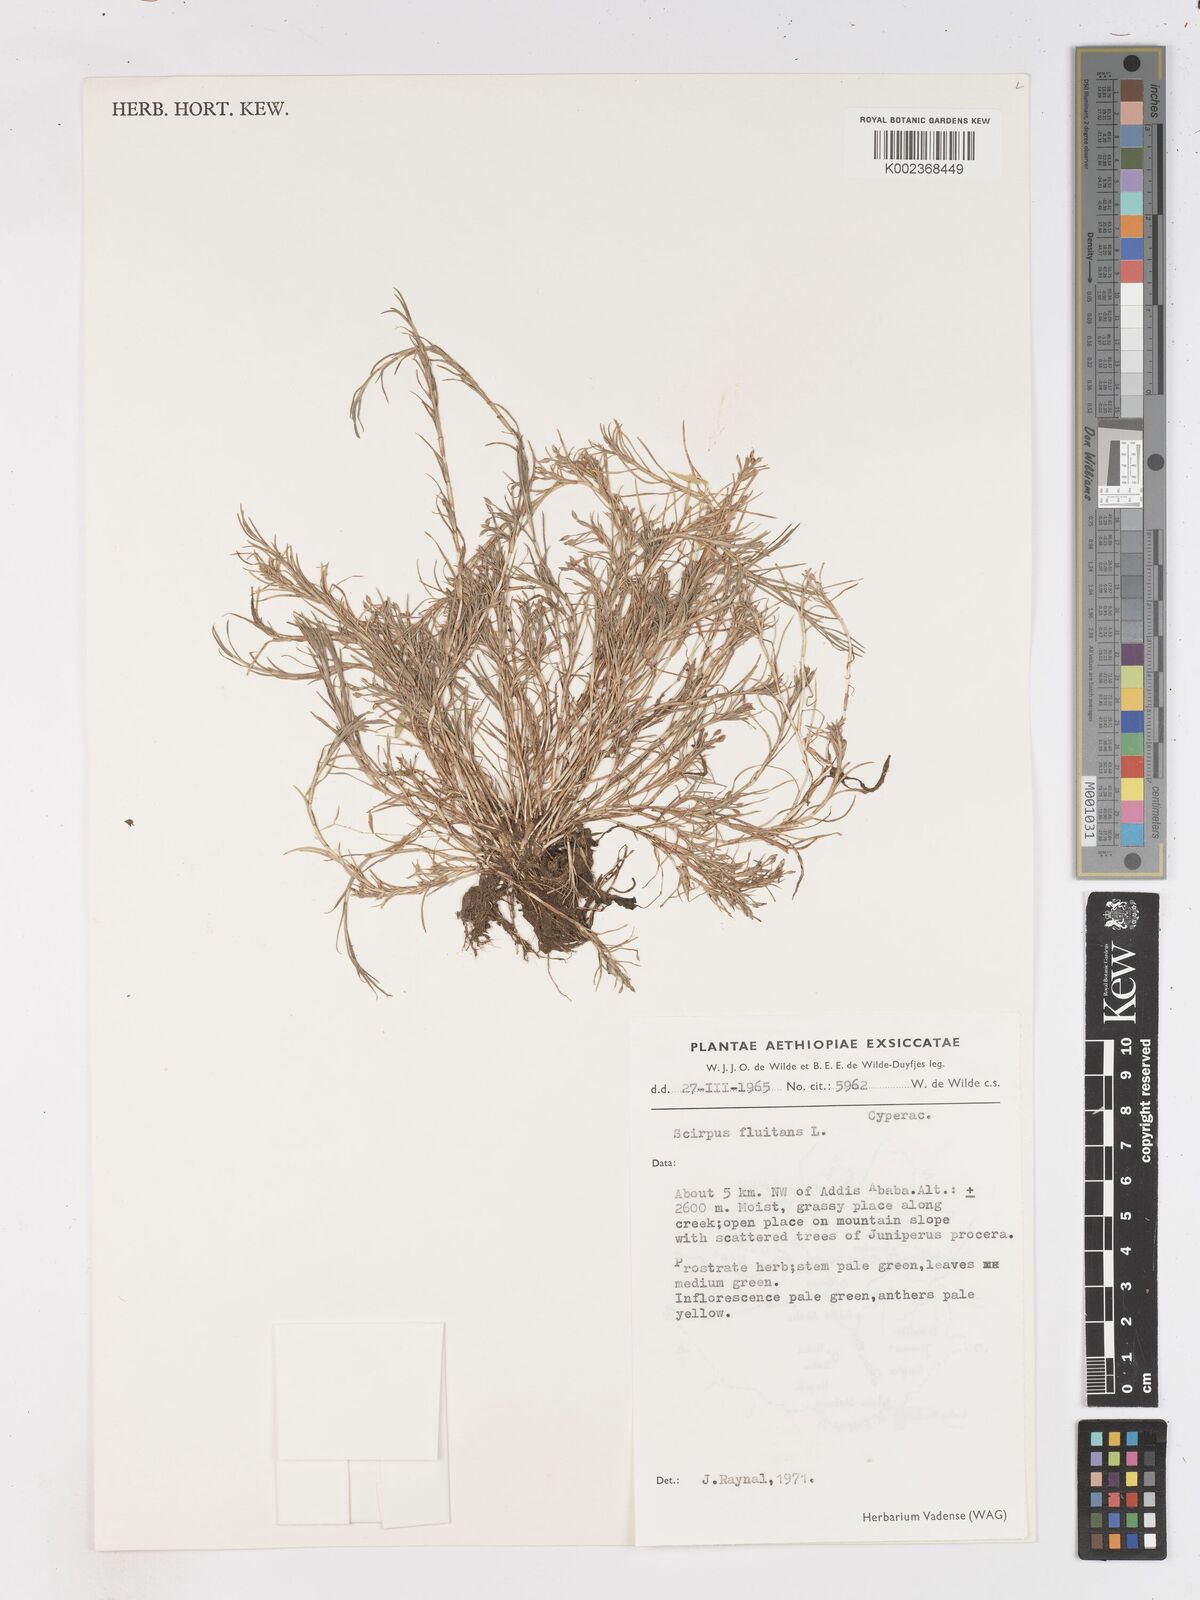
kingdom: Plantae
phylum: Tracheophyta
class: Liliopsida
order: Poales
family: Cyperaceae
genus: Isolepis
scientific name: Isolepis fluitans
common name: Floating club-rush
